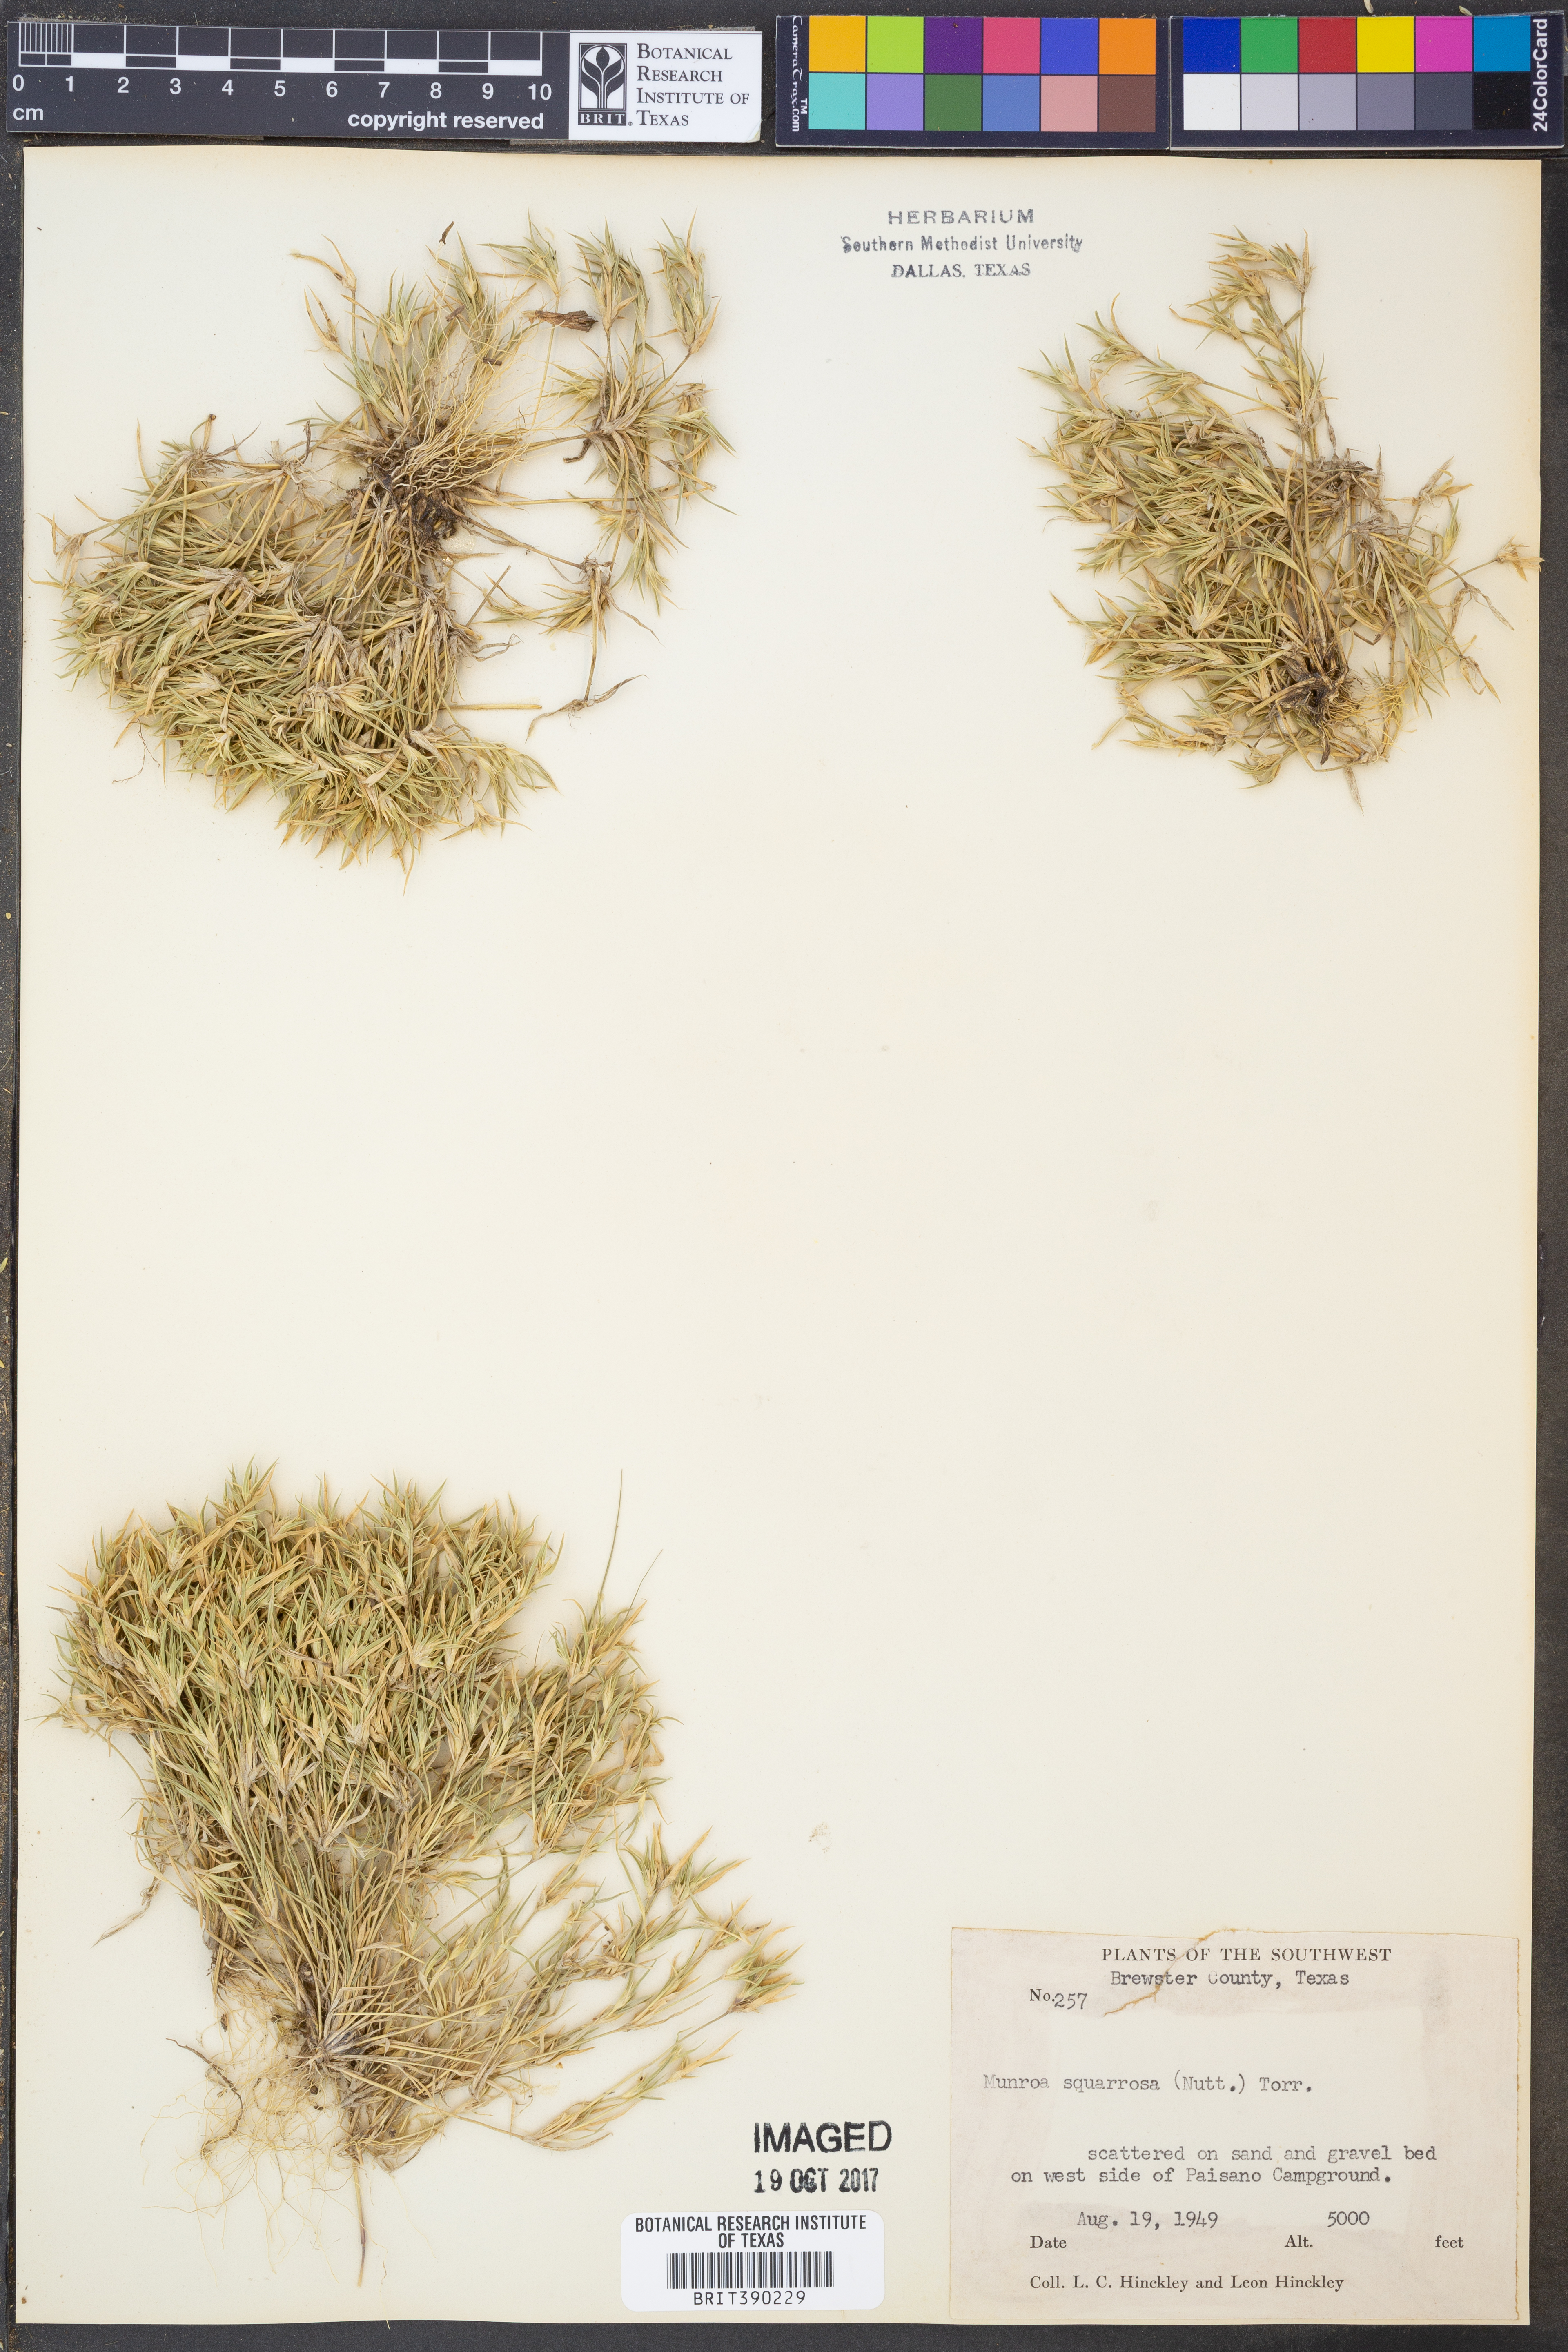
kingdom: Plantae
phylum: Tracheophyta
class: Liliopsida
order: Poales
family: Poaceae
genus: Munroa
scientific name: Munroa squarrosa
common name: False buffalo grass
